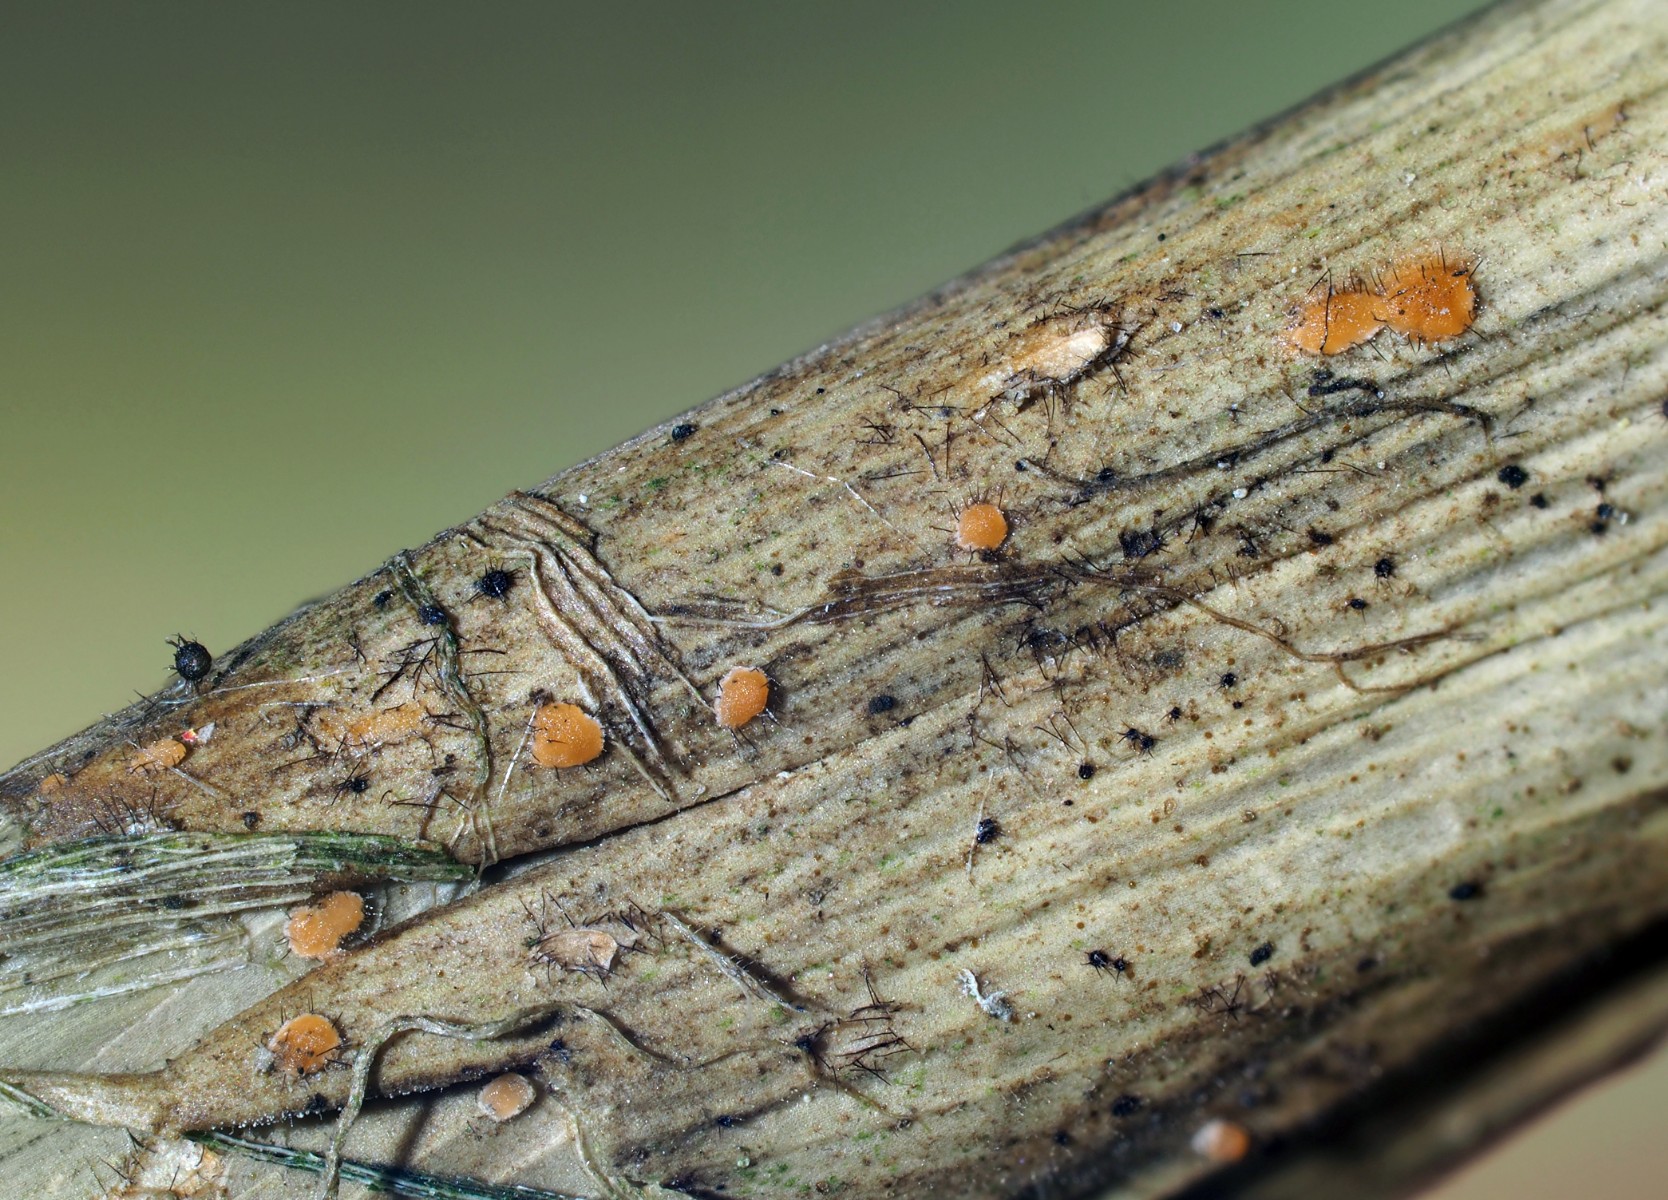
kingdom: Fungi
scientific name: Fungi
